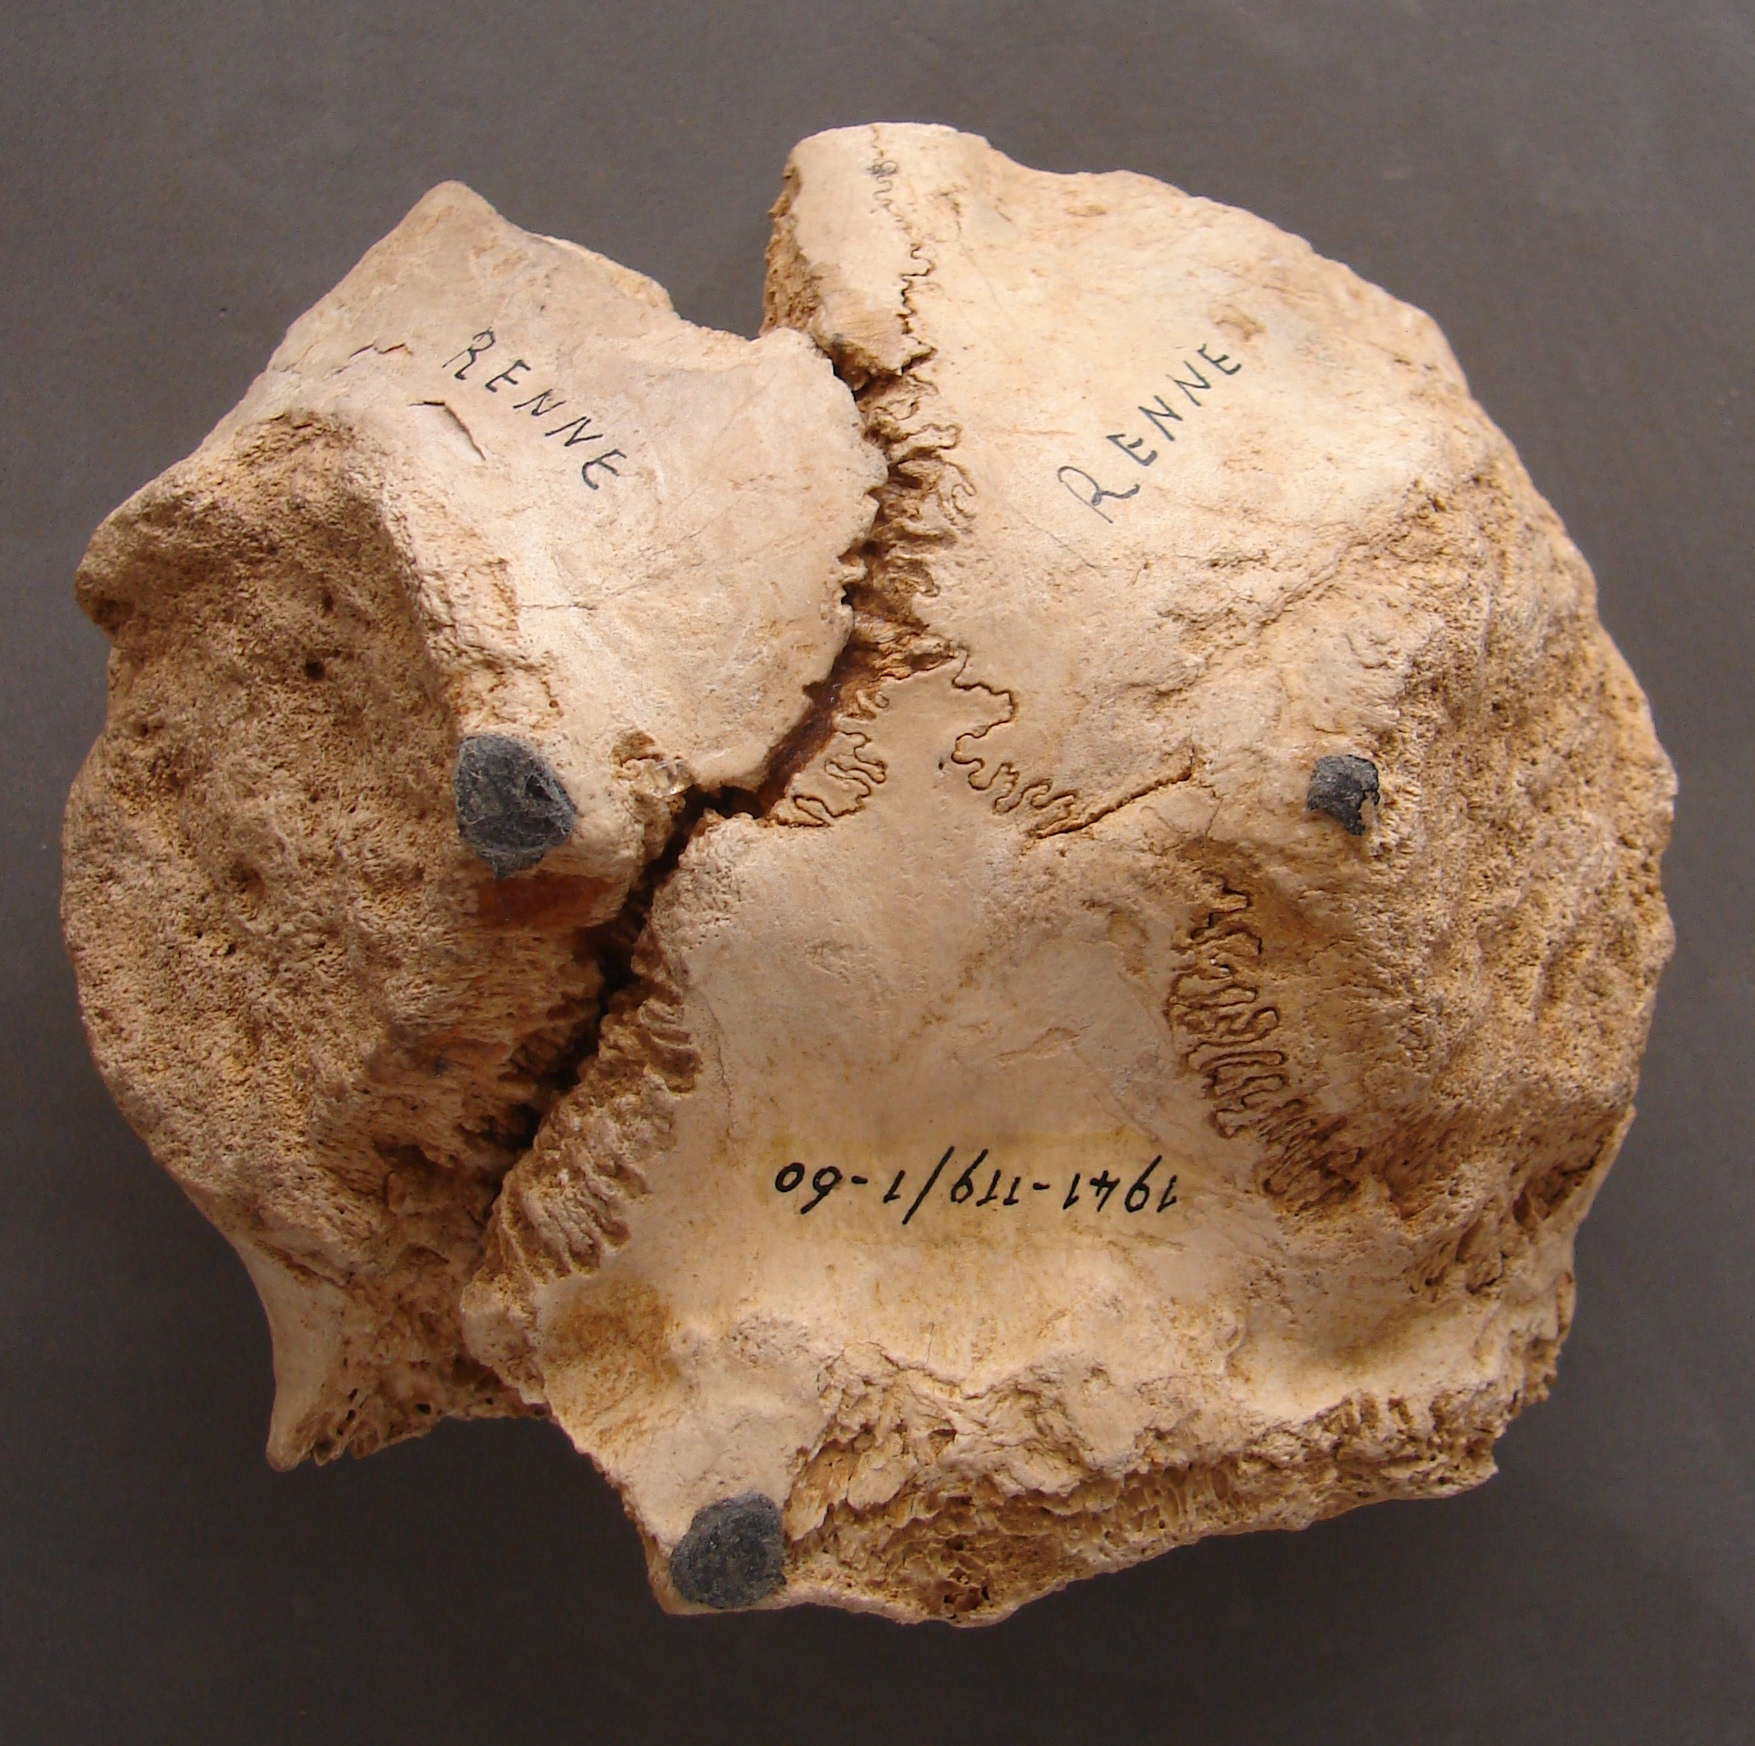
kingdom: Animalia
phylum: Chordata
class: Mammalia
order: Artiodactyla
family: Cervidae
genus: Rangifer
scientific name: Rangifer tarandus
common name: Reindeer
